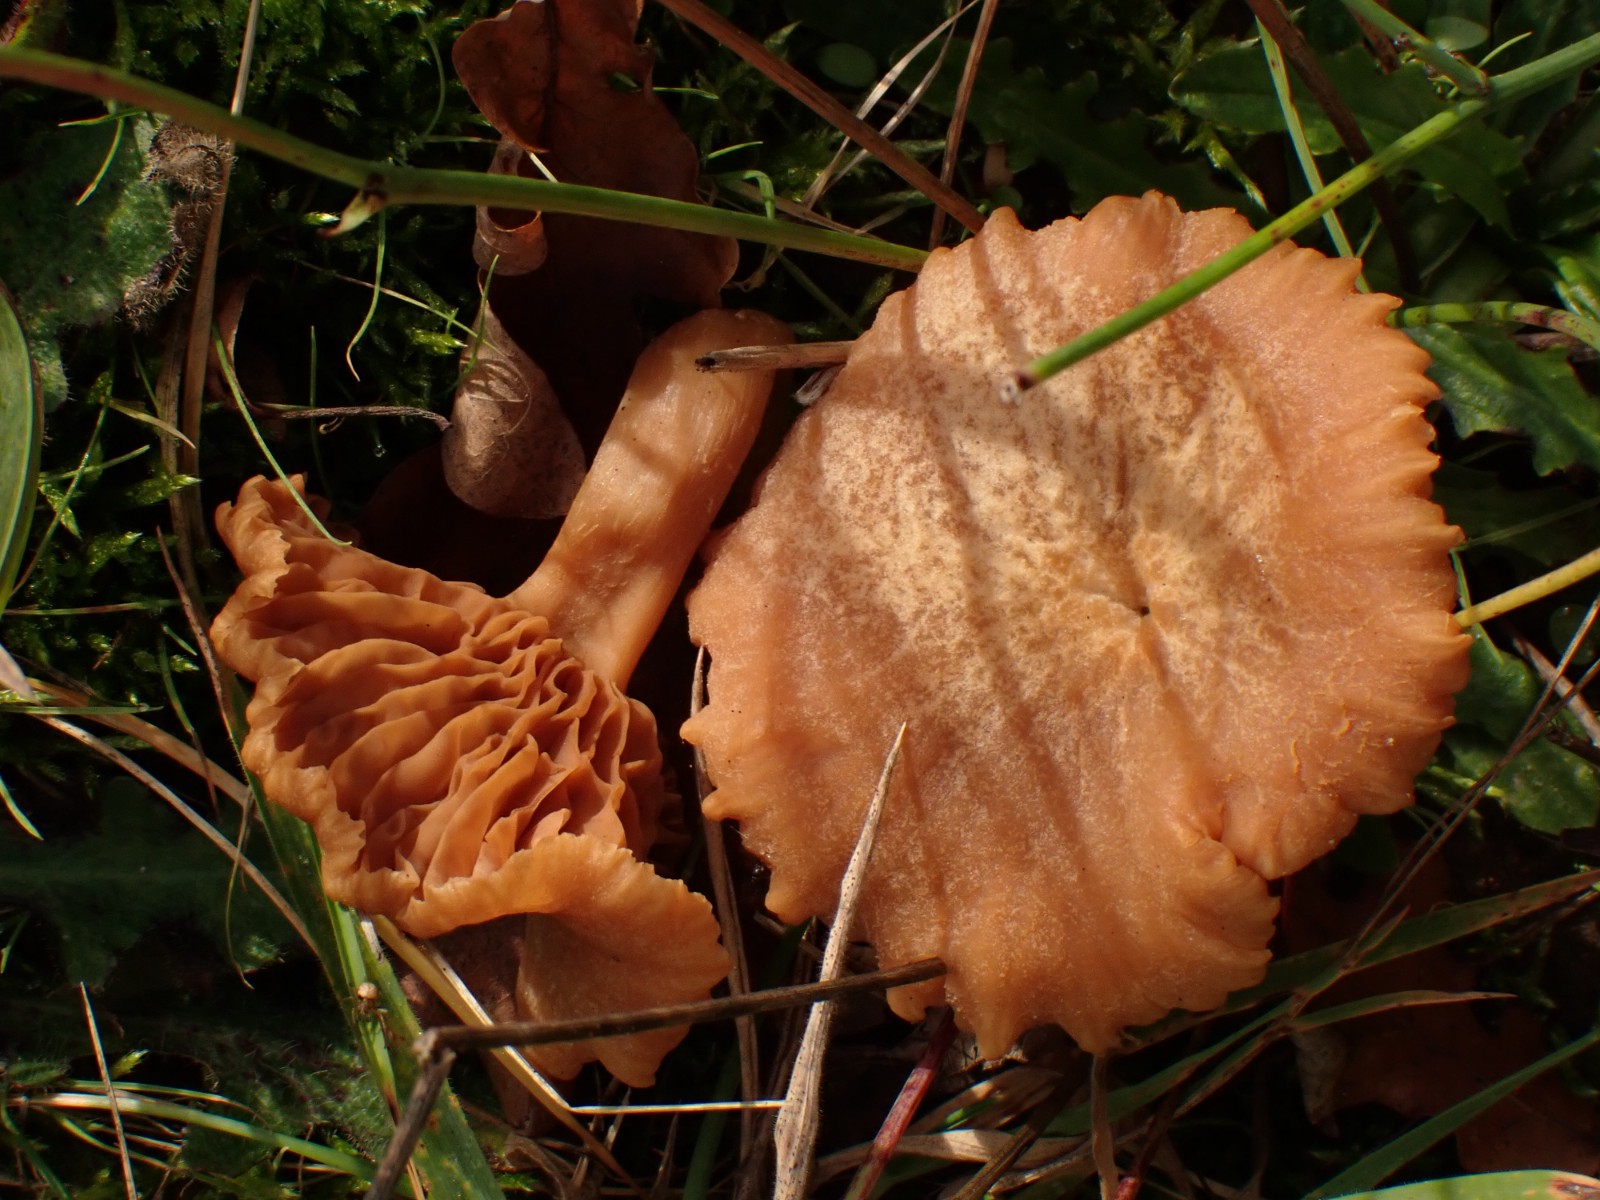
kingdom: Fungi
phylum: Basidiomycota
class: Agaricomycetes
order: Agaricales
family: Hydnangiaceae
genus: Laccaria
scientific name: Laccaria
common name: ametysthat
